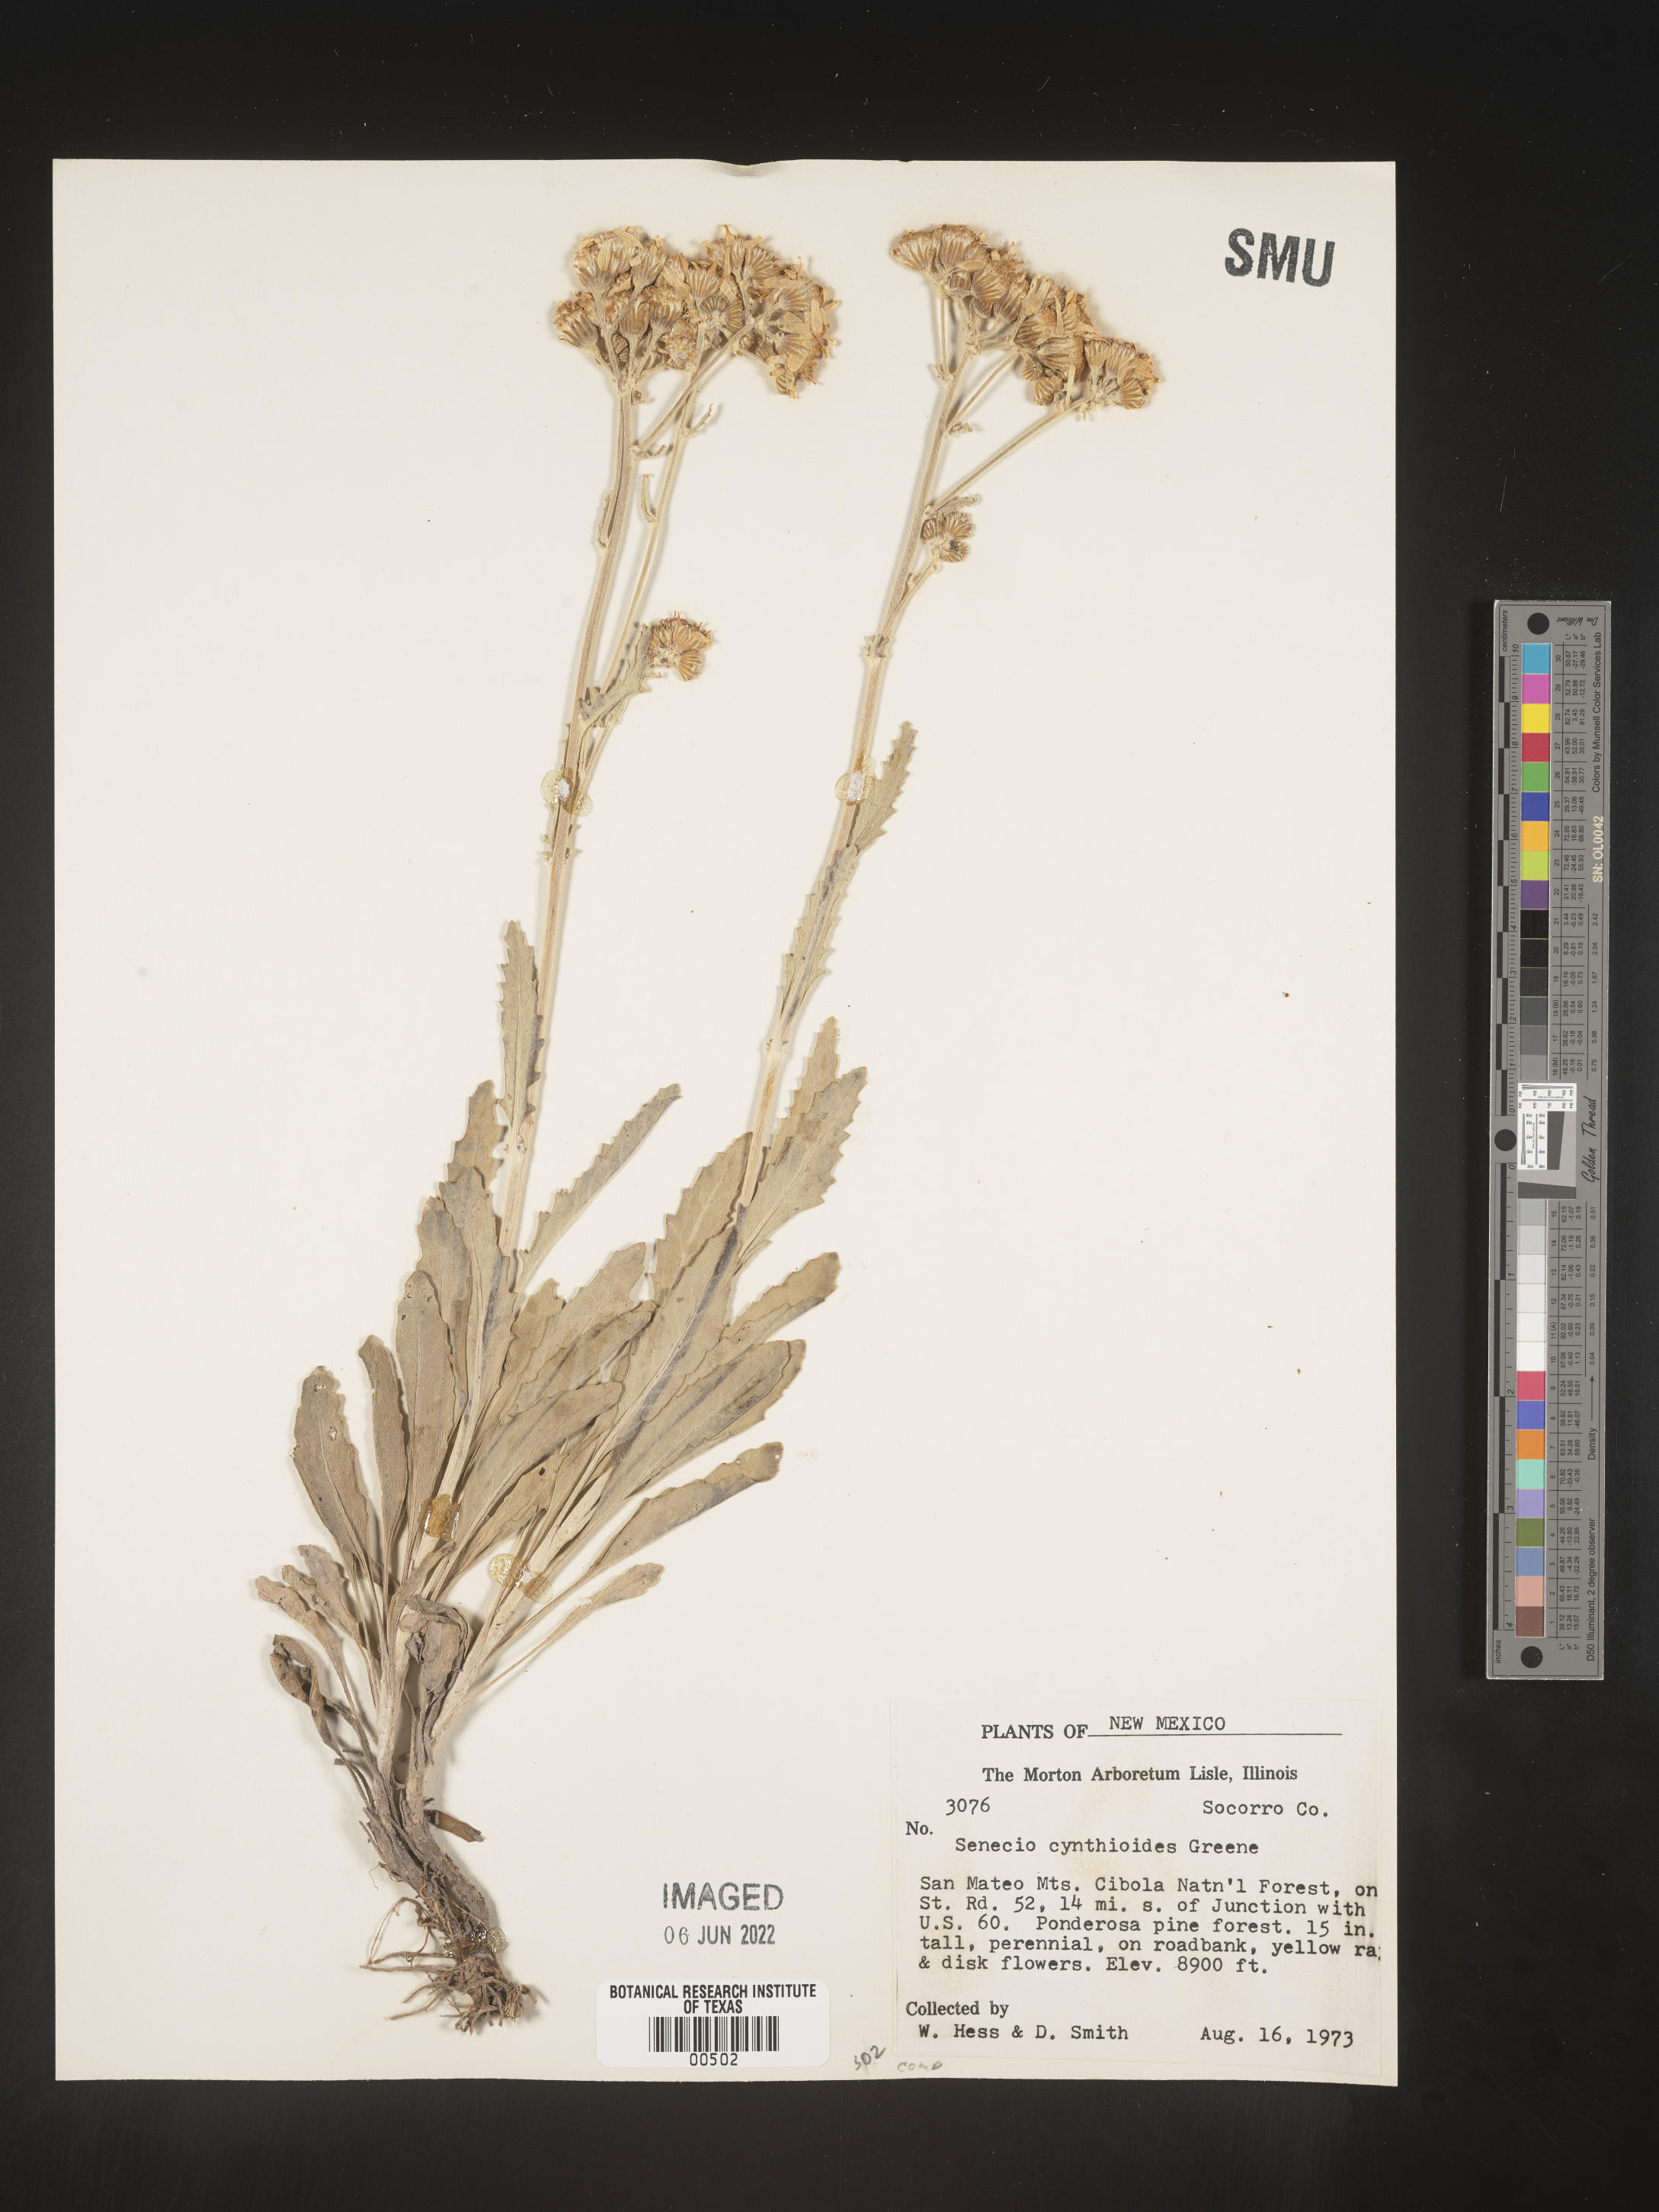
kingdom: Plantae
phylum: Tracheophyta
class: Magnoliopsida
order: Asterales
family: Asteraceae
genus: Packera
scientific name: Packera
